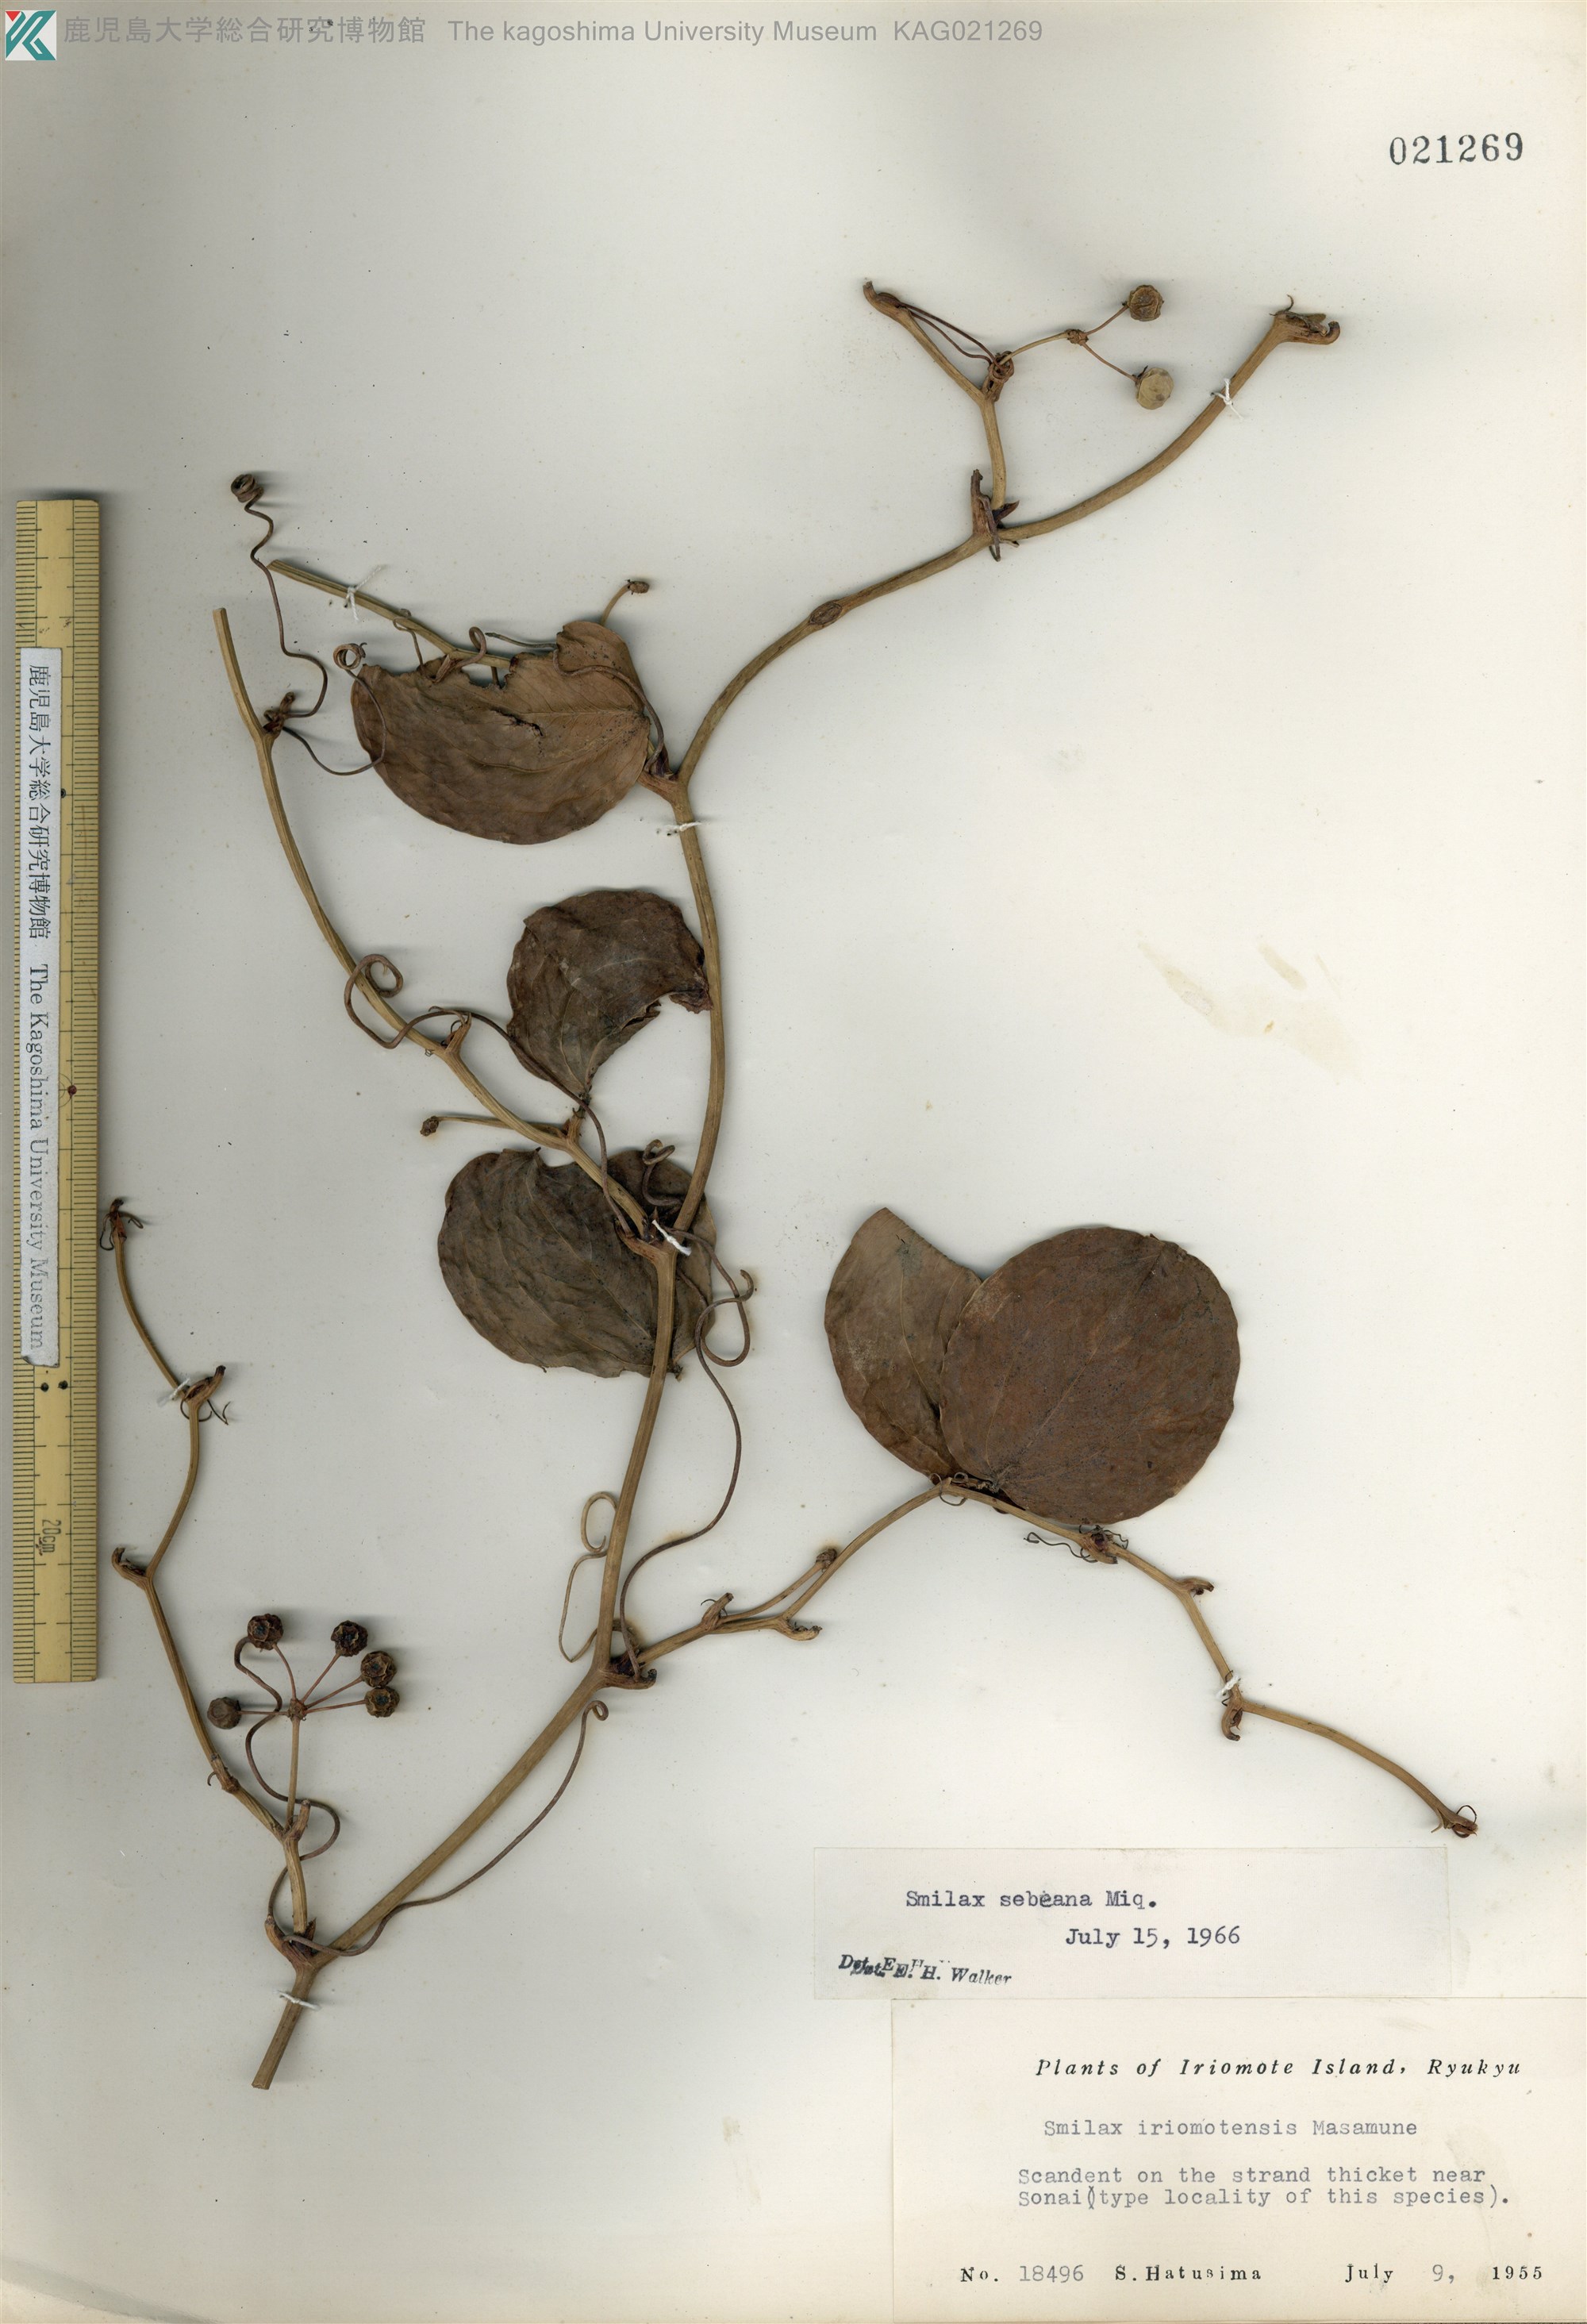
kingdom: Plantae
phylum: Tracheophyta
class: Liliopsida
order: Liliales
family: Smilacaceae
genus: Smilax
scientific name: Smilax china
